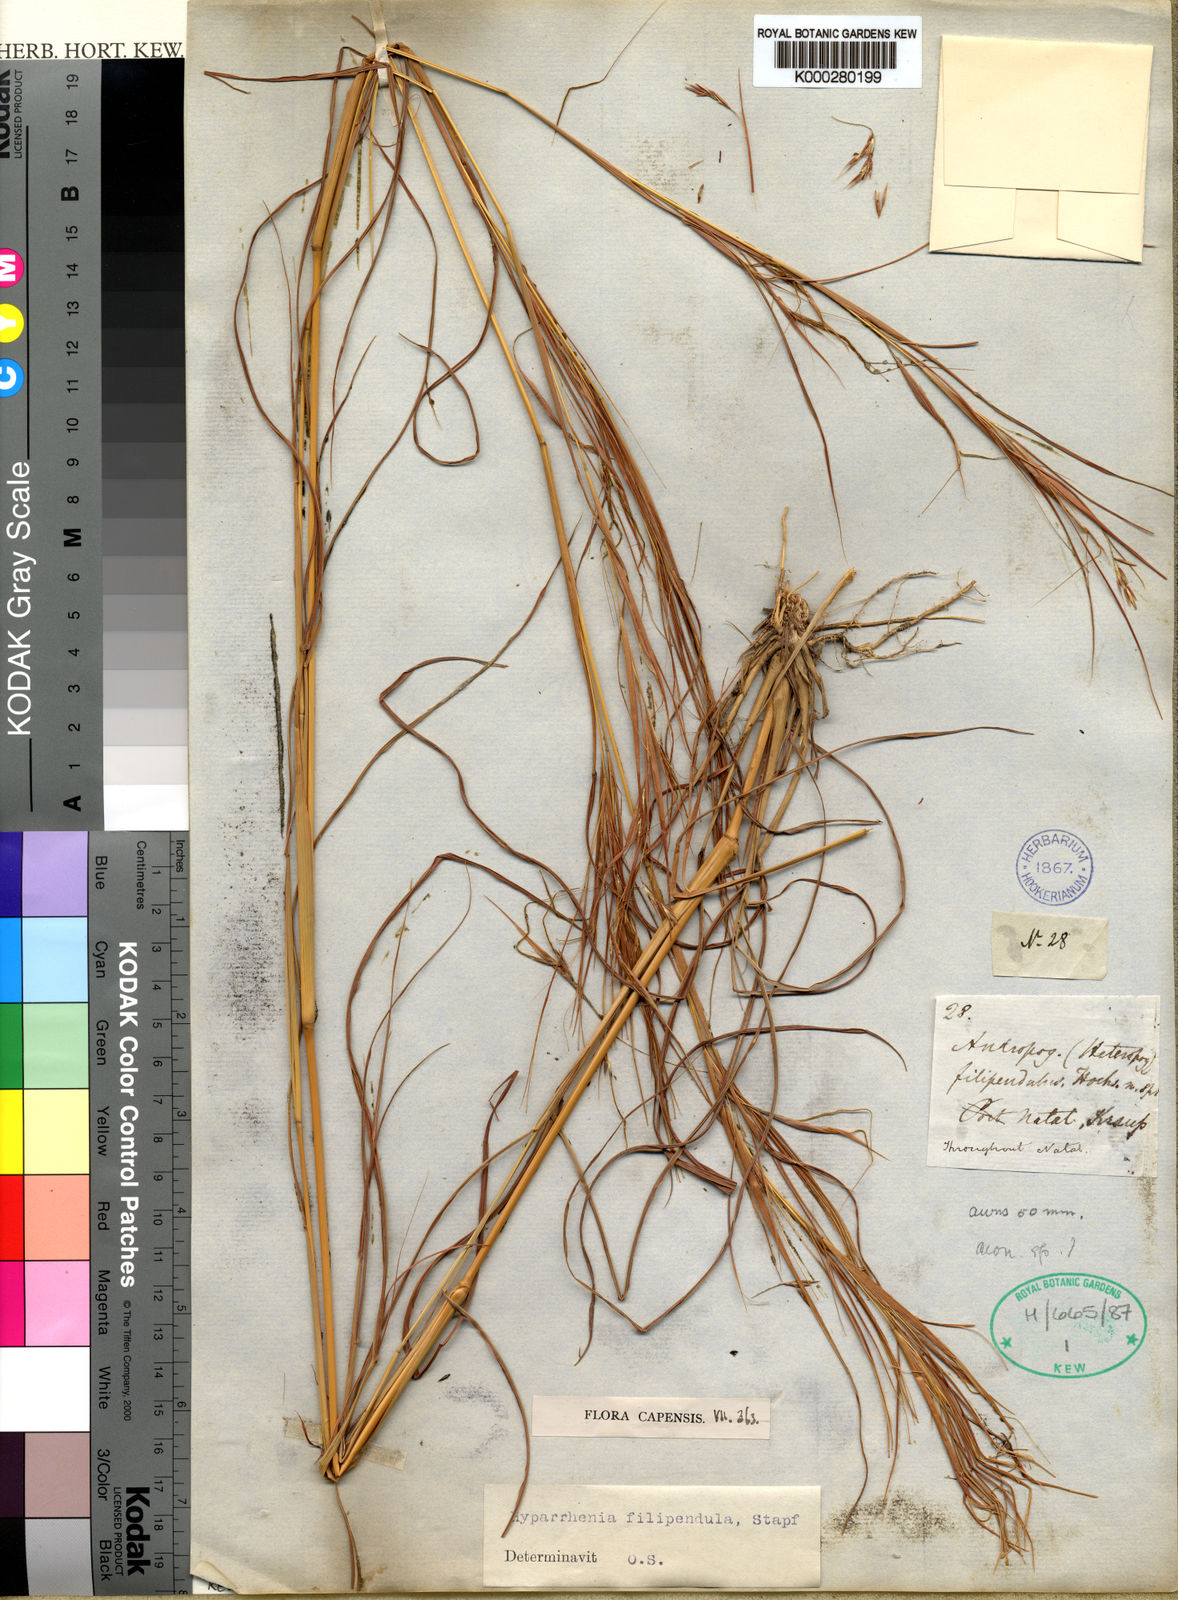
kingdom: Plantae
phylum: Tracheophyta
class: Liliopsida
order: Poales
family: Poaceae
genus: Hyparrhenia
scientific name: Hyparrhenia filipendula
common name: Tambookie grass
